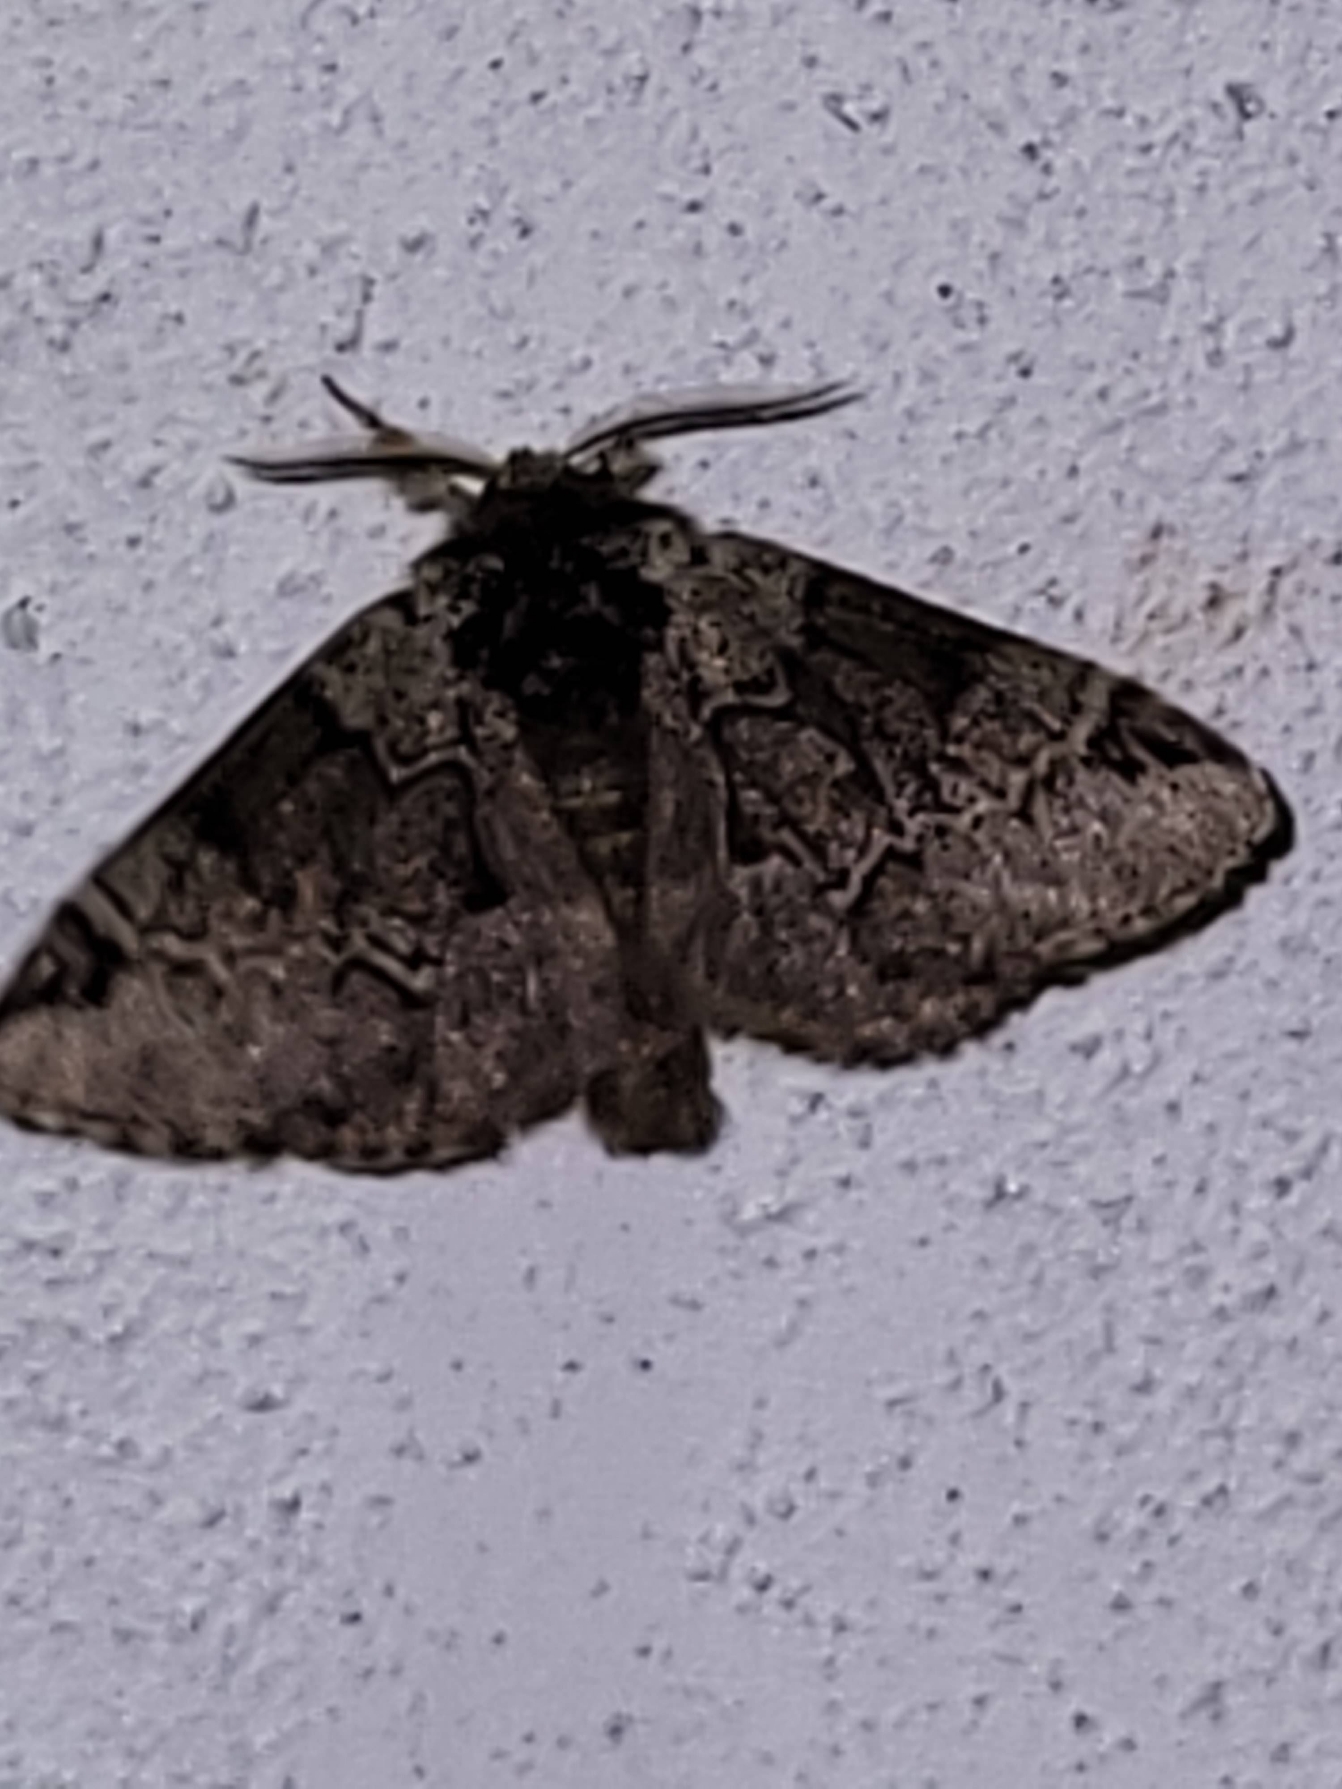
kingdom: Animalia
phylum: Arthropoda
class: Insecta
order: Lepidoptera
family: Notodontidae
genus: Drymonia
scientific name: Drymonia obliterata
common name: Bøgeskovspinder
